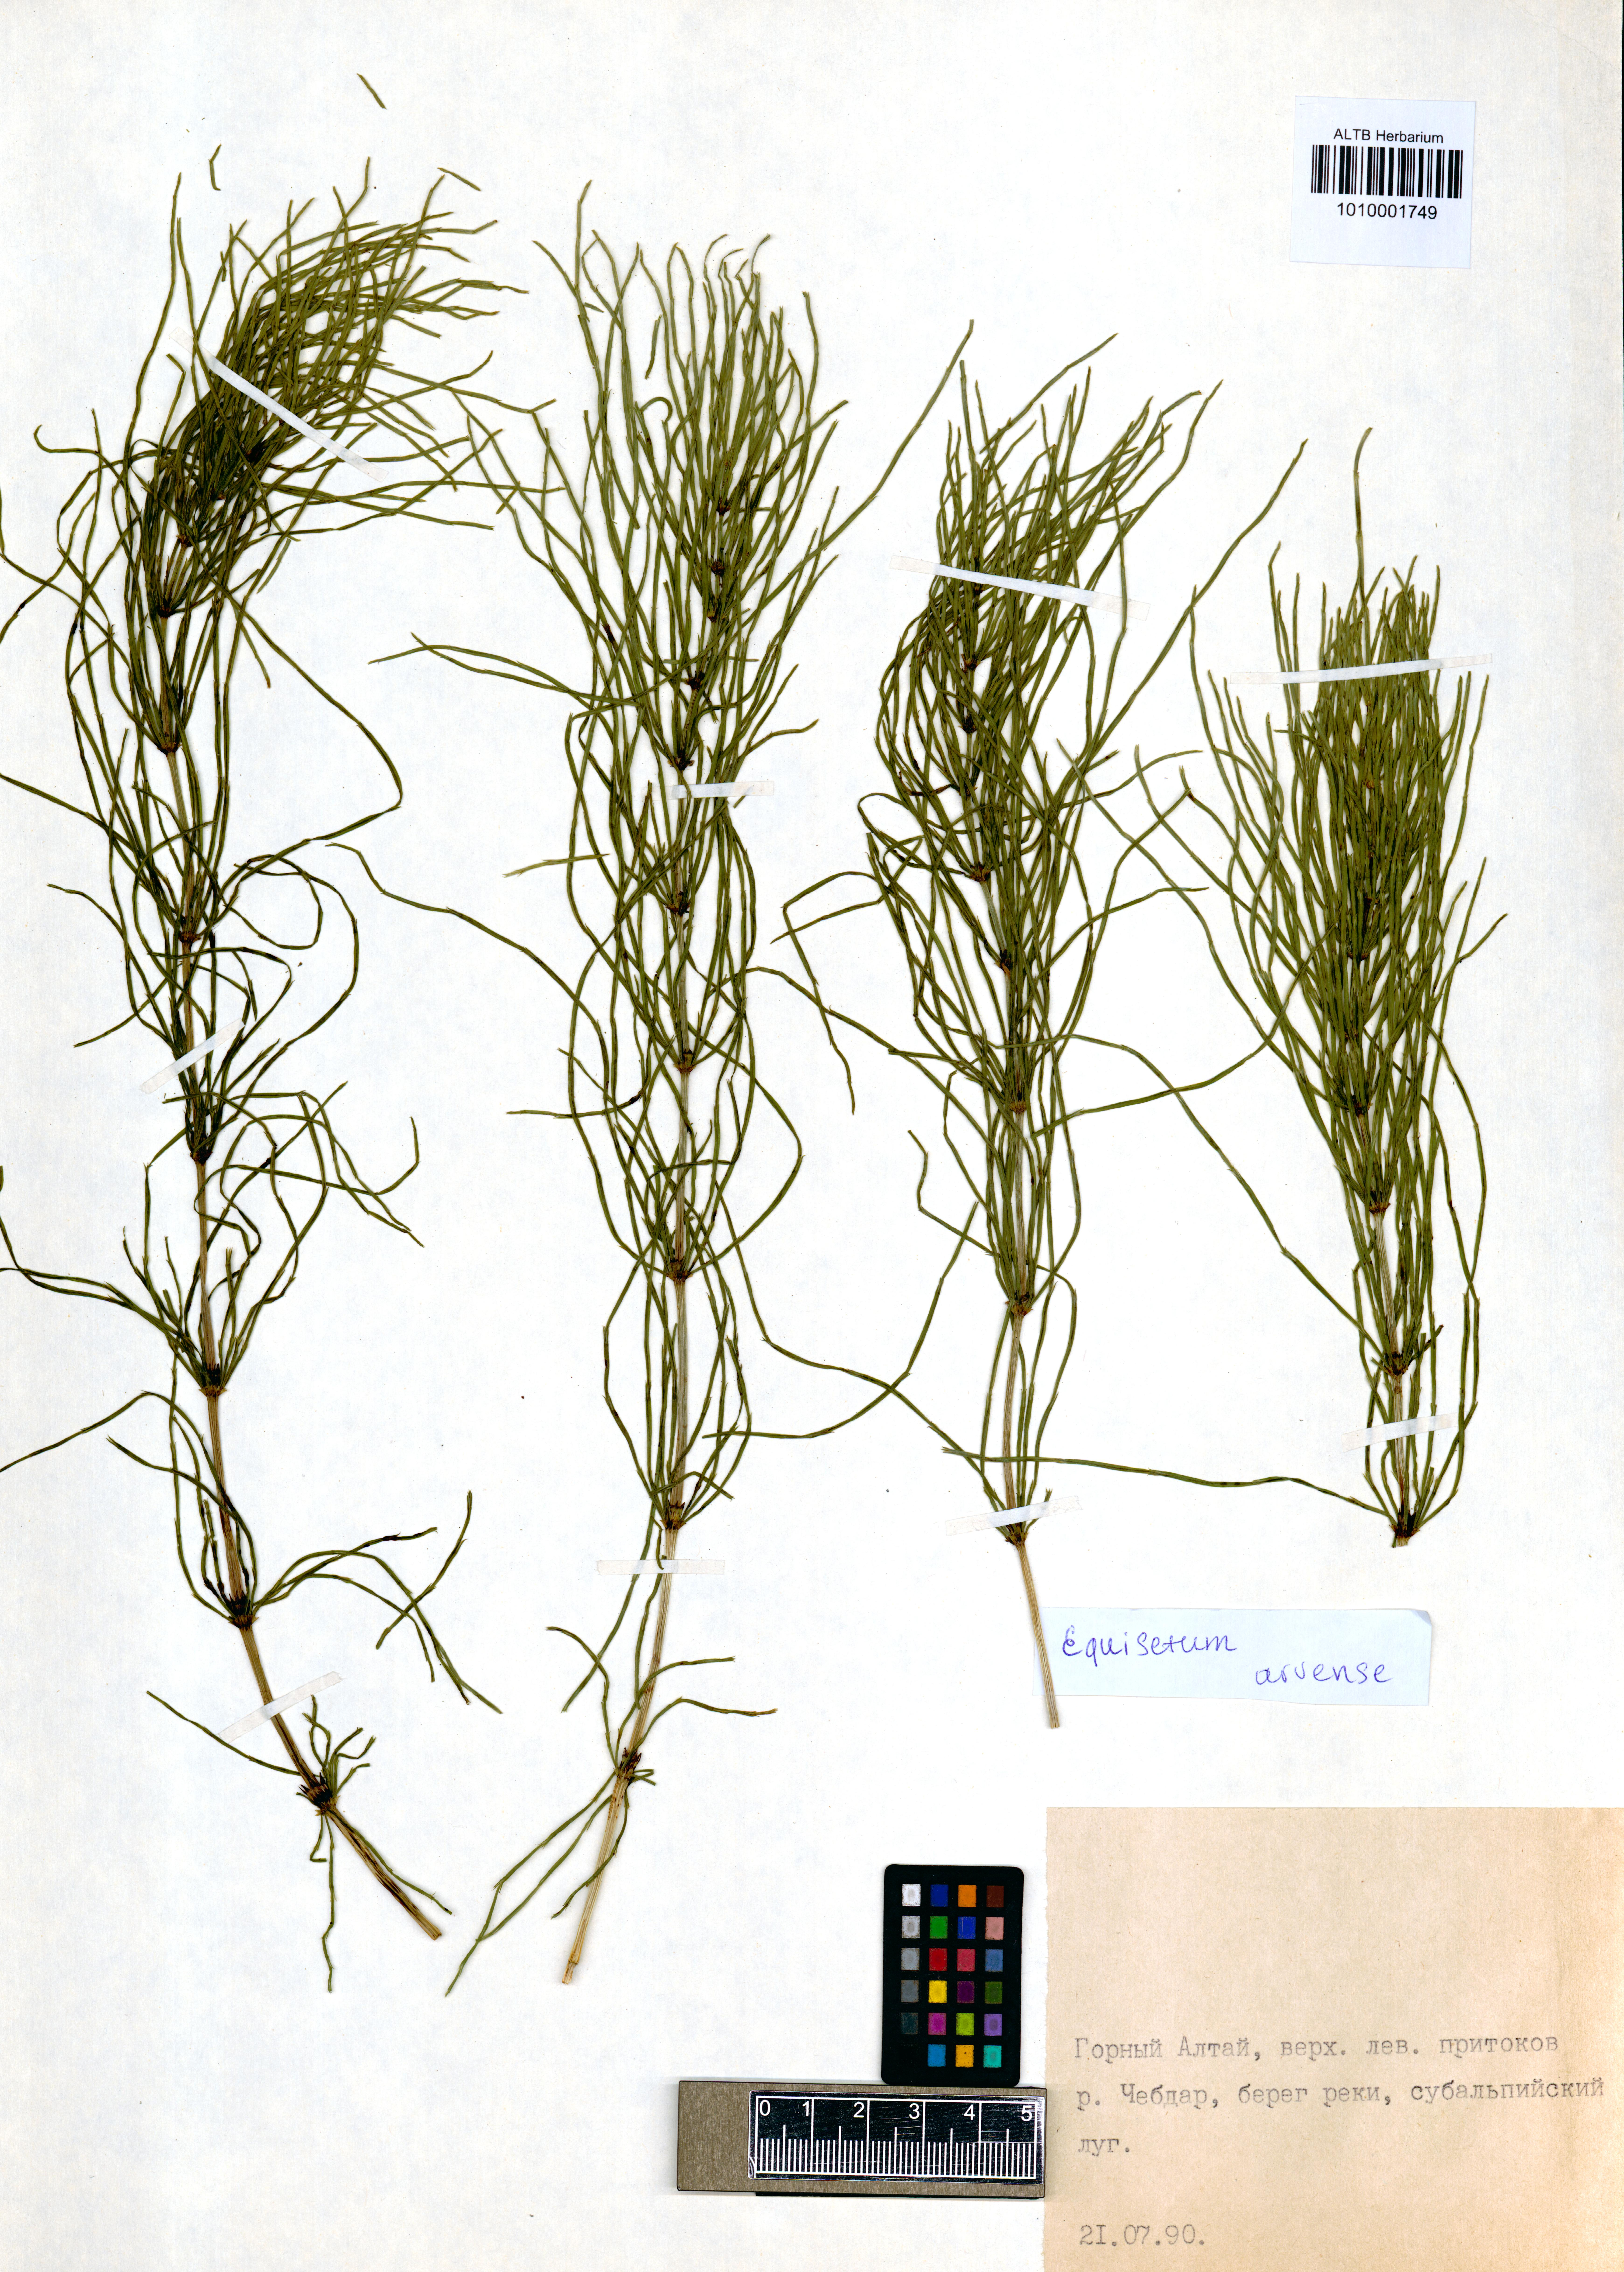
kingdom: Plantae
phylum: Tracheophyta
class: Polypodiopsida
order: Equisetales
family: Equisetaceae
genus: Equisetum
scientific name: Equisetum arvense
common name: Field horsetail
